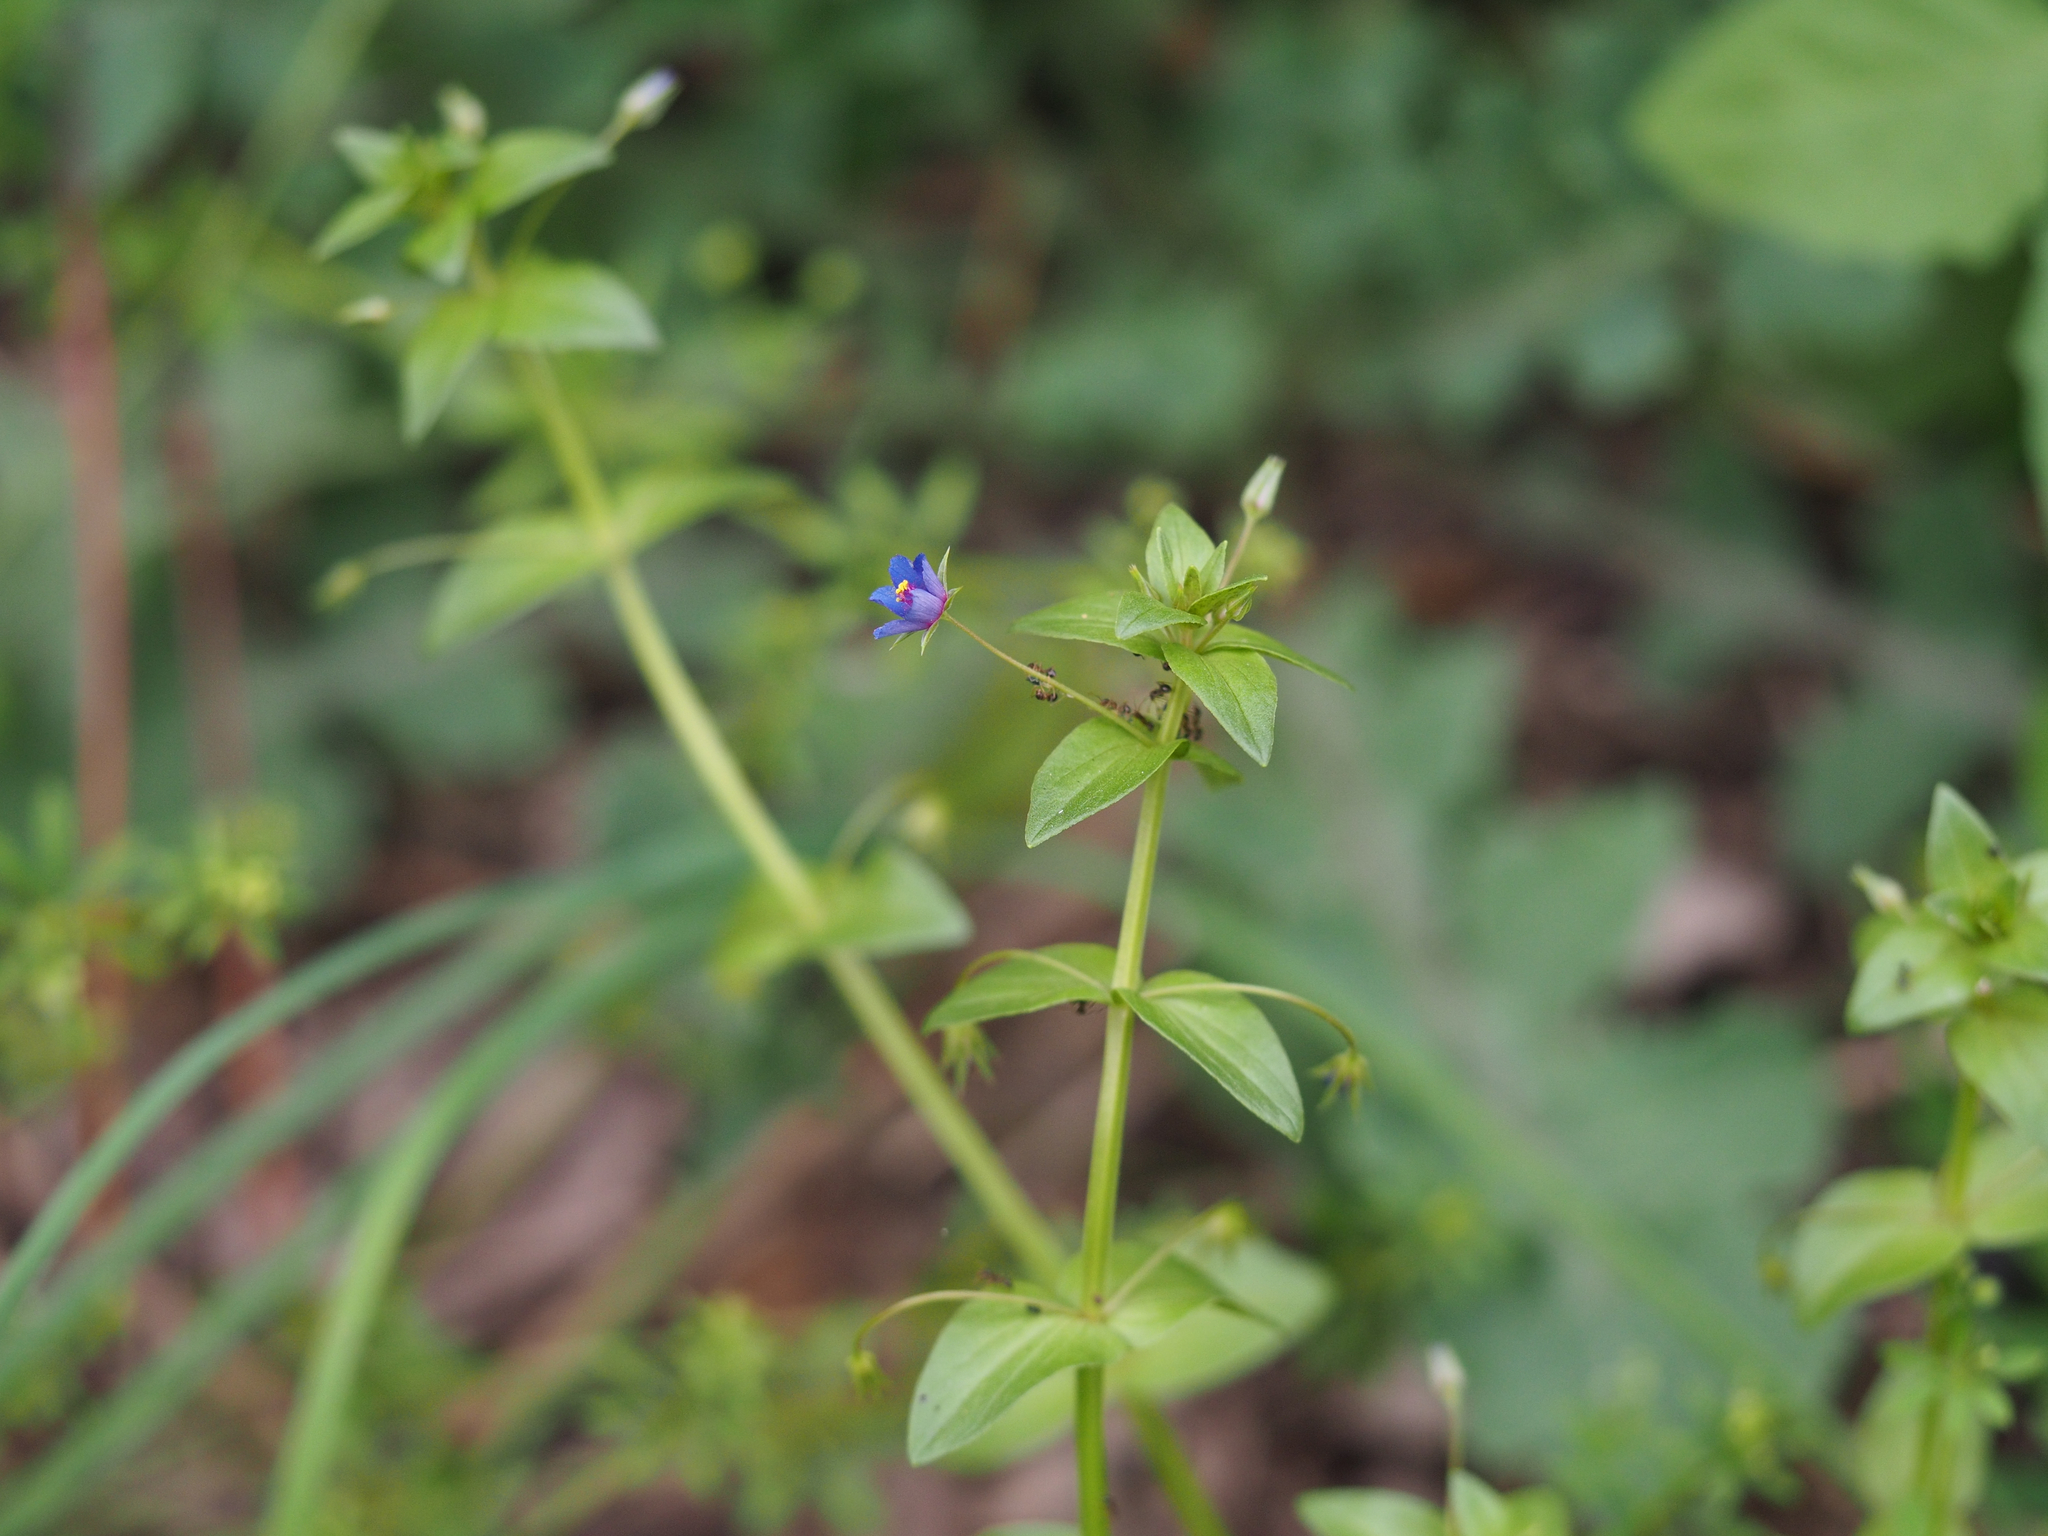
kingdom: Plantae
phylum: Tracheophyta
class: Magnoliopsida
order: Ericales
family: Primulaceae
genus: Lysimachia
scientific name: Lysimachia arvensis
